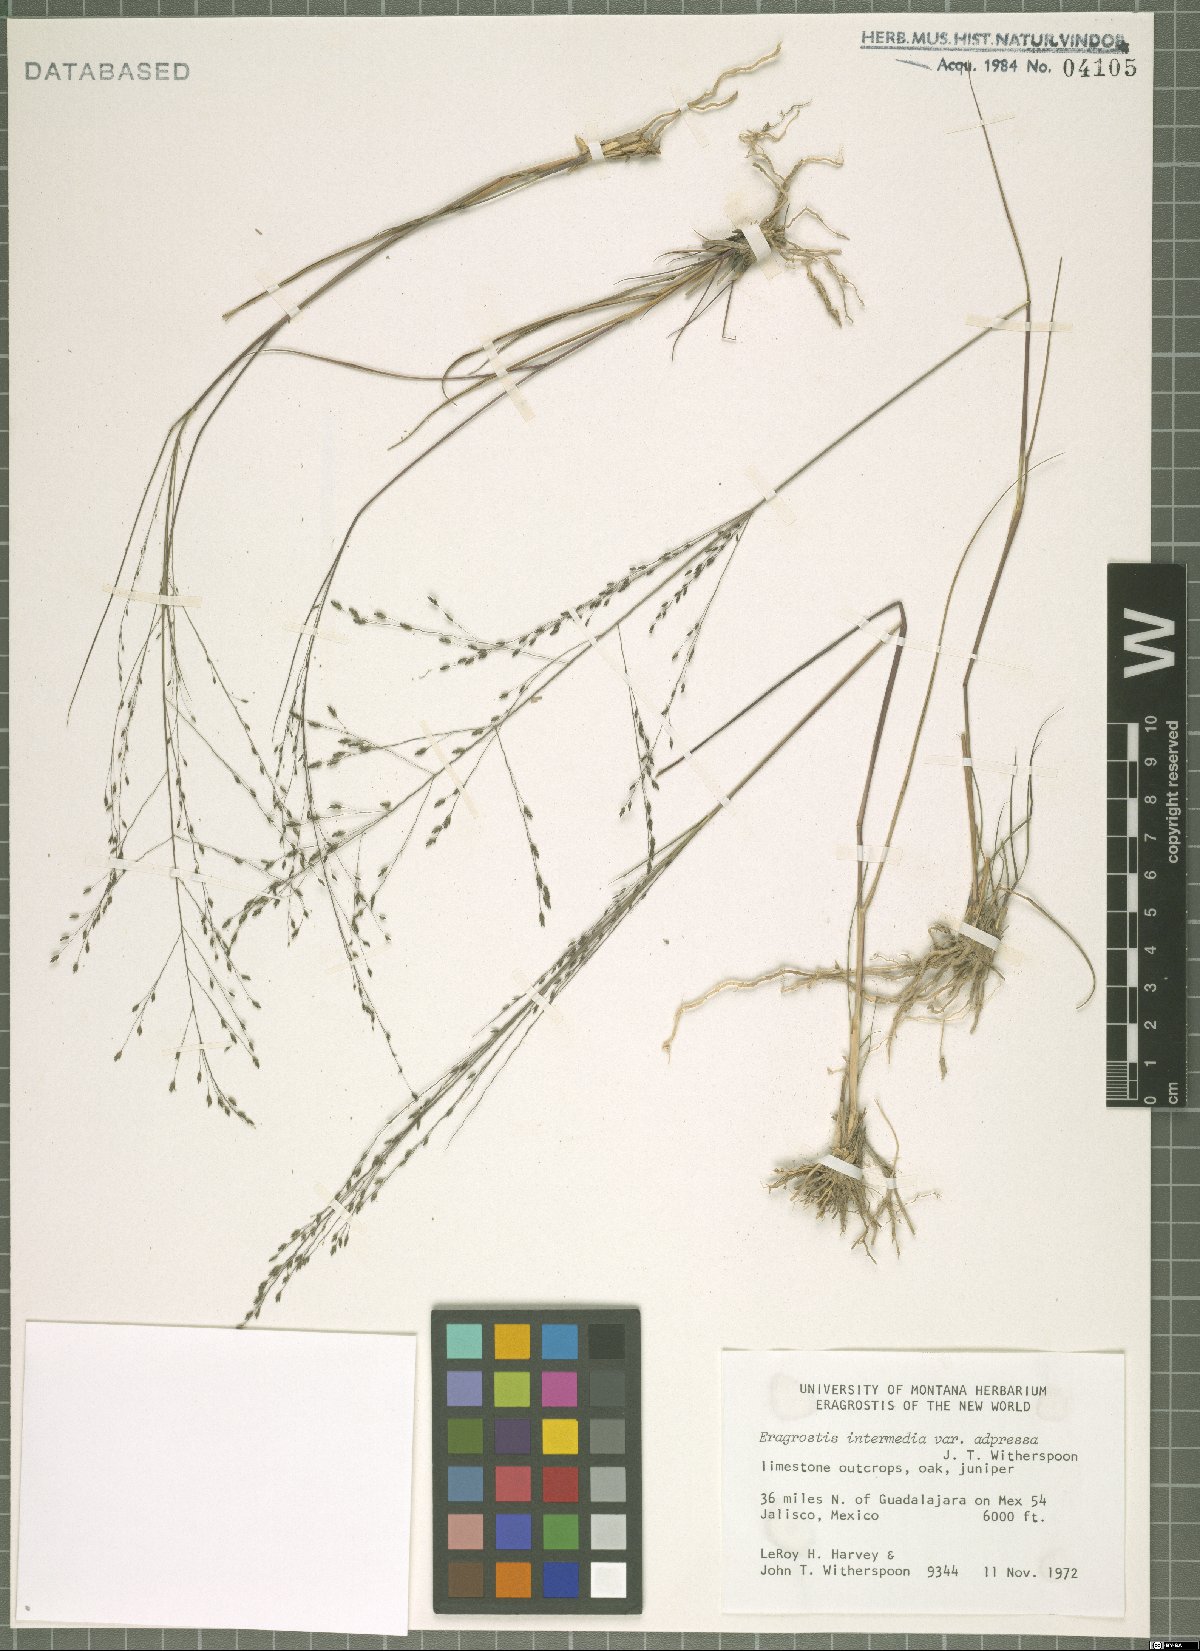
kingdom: Plantae
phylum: Tracheophyta
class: Liliopsida
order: Poales
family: Poaceae
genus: Eragrostis
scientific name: Eragrostis intermedia
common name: Plains love grass
